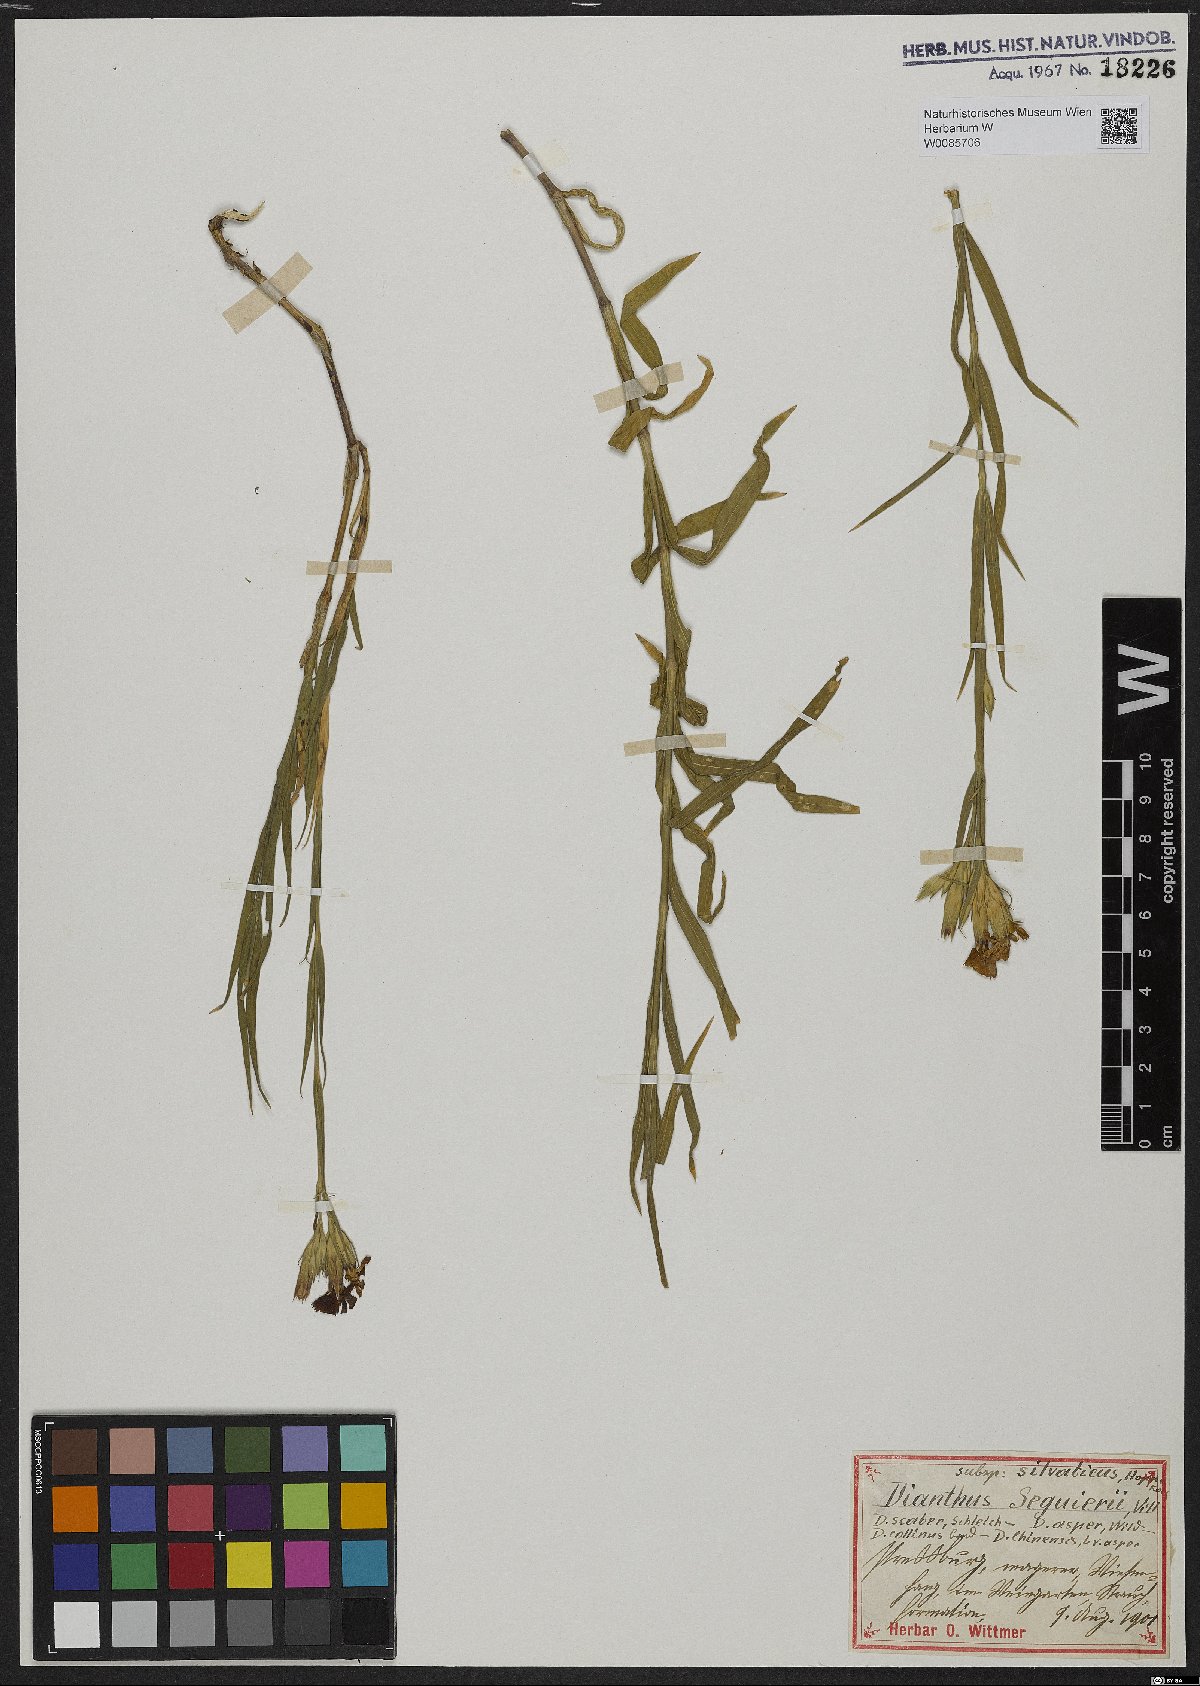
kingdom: Plantae
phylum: Tracheophyta
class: Magnoliopsida
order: Caryophyllales
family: Caryophyllaceae
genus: Dianthus
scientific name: Dianthus seguieri
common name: Ragged pink
